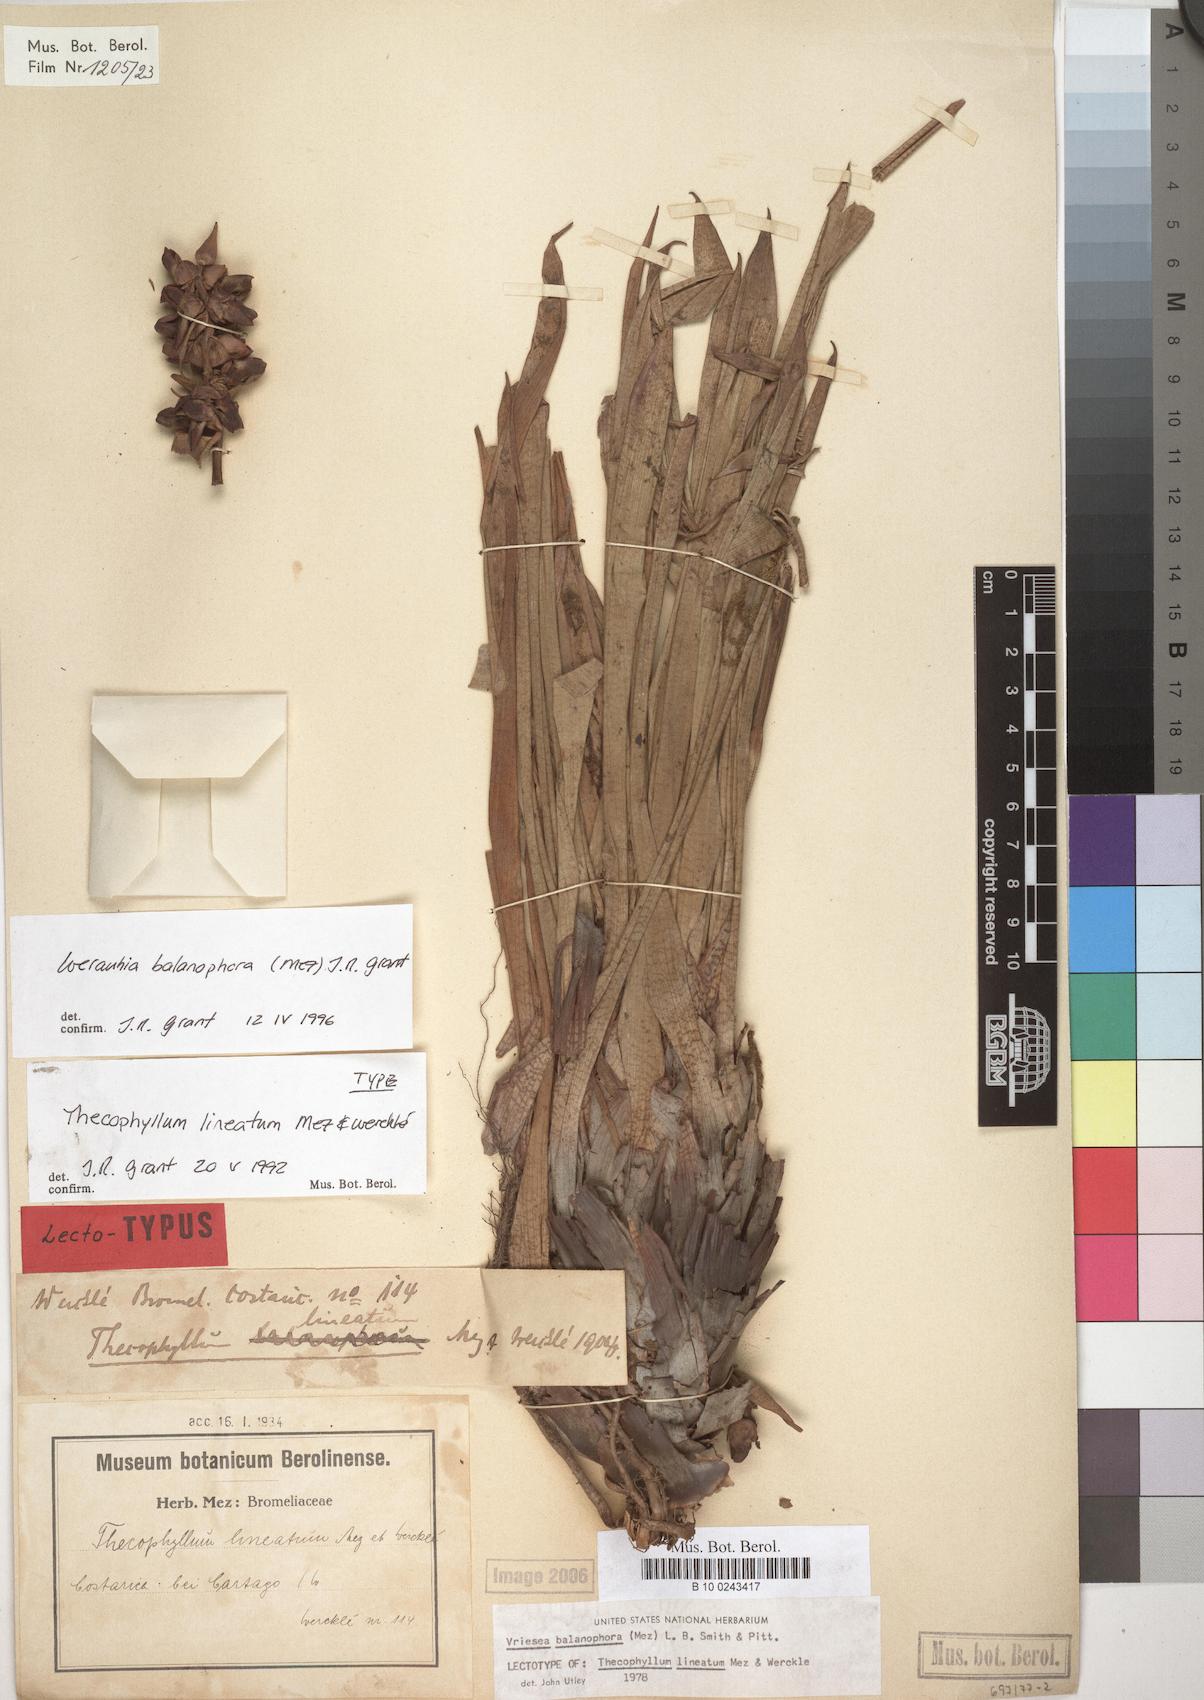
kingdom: Plantae
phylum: Tracheophyta
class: Liliopsida
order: Poales
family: Bromeliaceae
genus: Werauhia
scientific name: Werauhia balanophora
